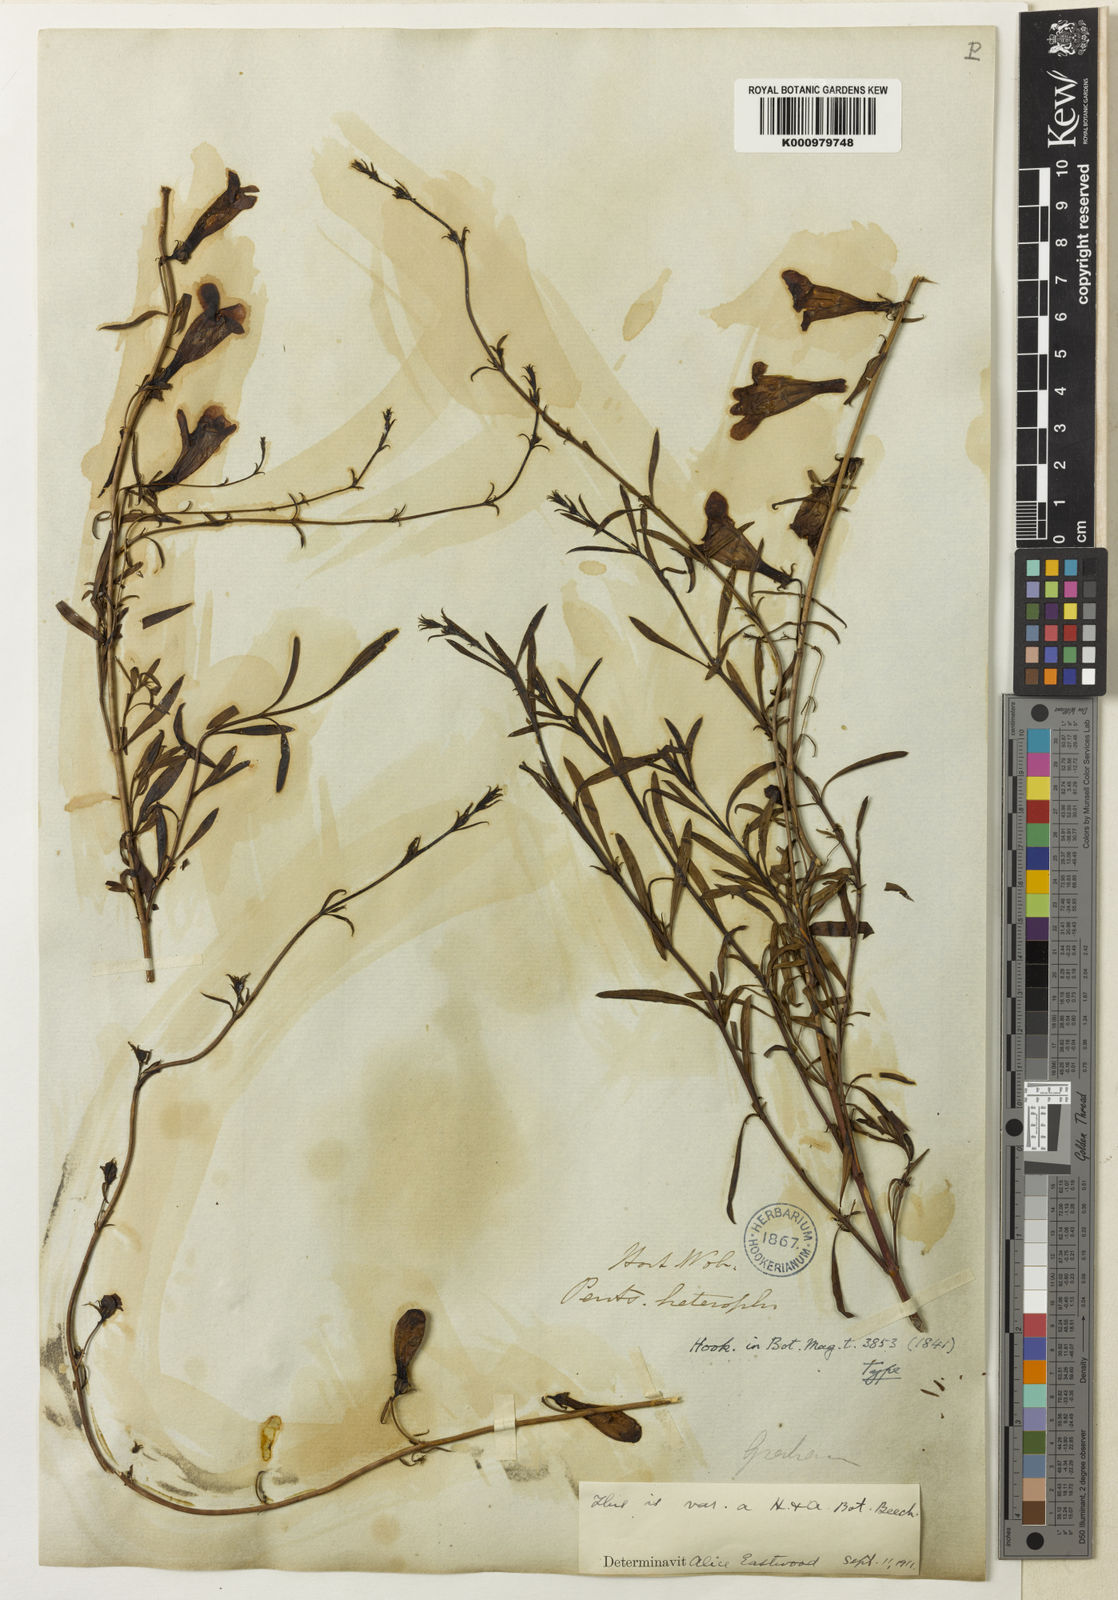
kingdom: Plantae
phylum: Tracheophyta
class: Magnoliopsida
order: Lamiales
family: Plantaginaceae
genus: Penstemon
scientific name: Penstemon heterophyllus
